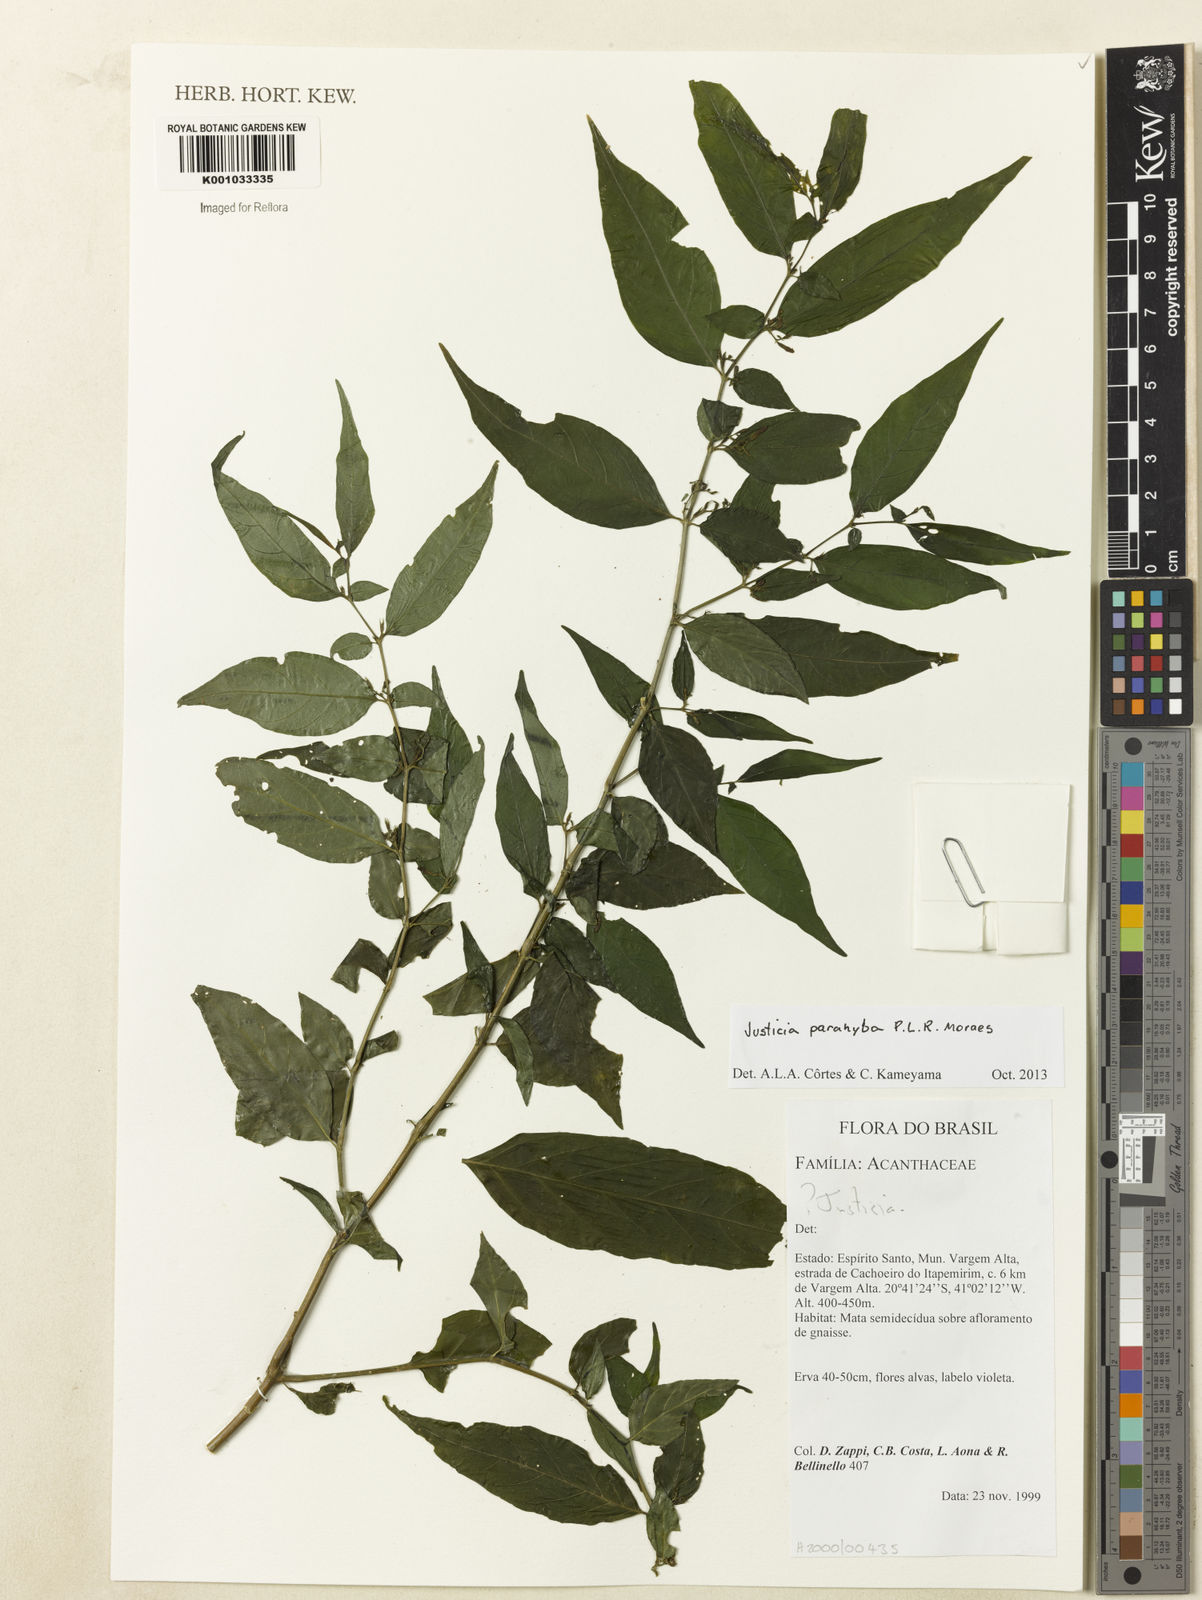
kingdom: Plantae
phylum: Tracheophyta
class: Magnoliopsida
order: Lamiales
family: Acanthaceae
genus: Justicia
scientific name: Justicia parahyba
